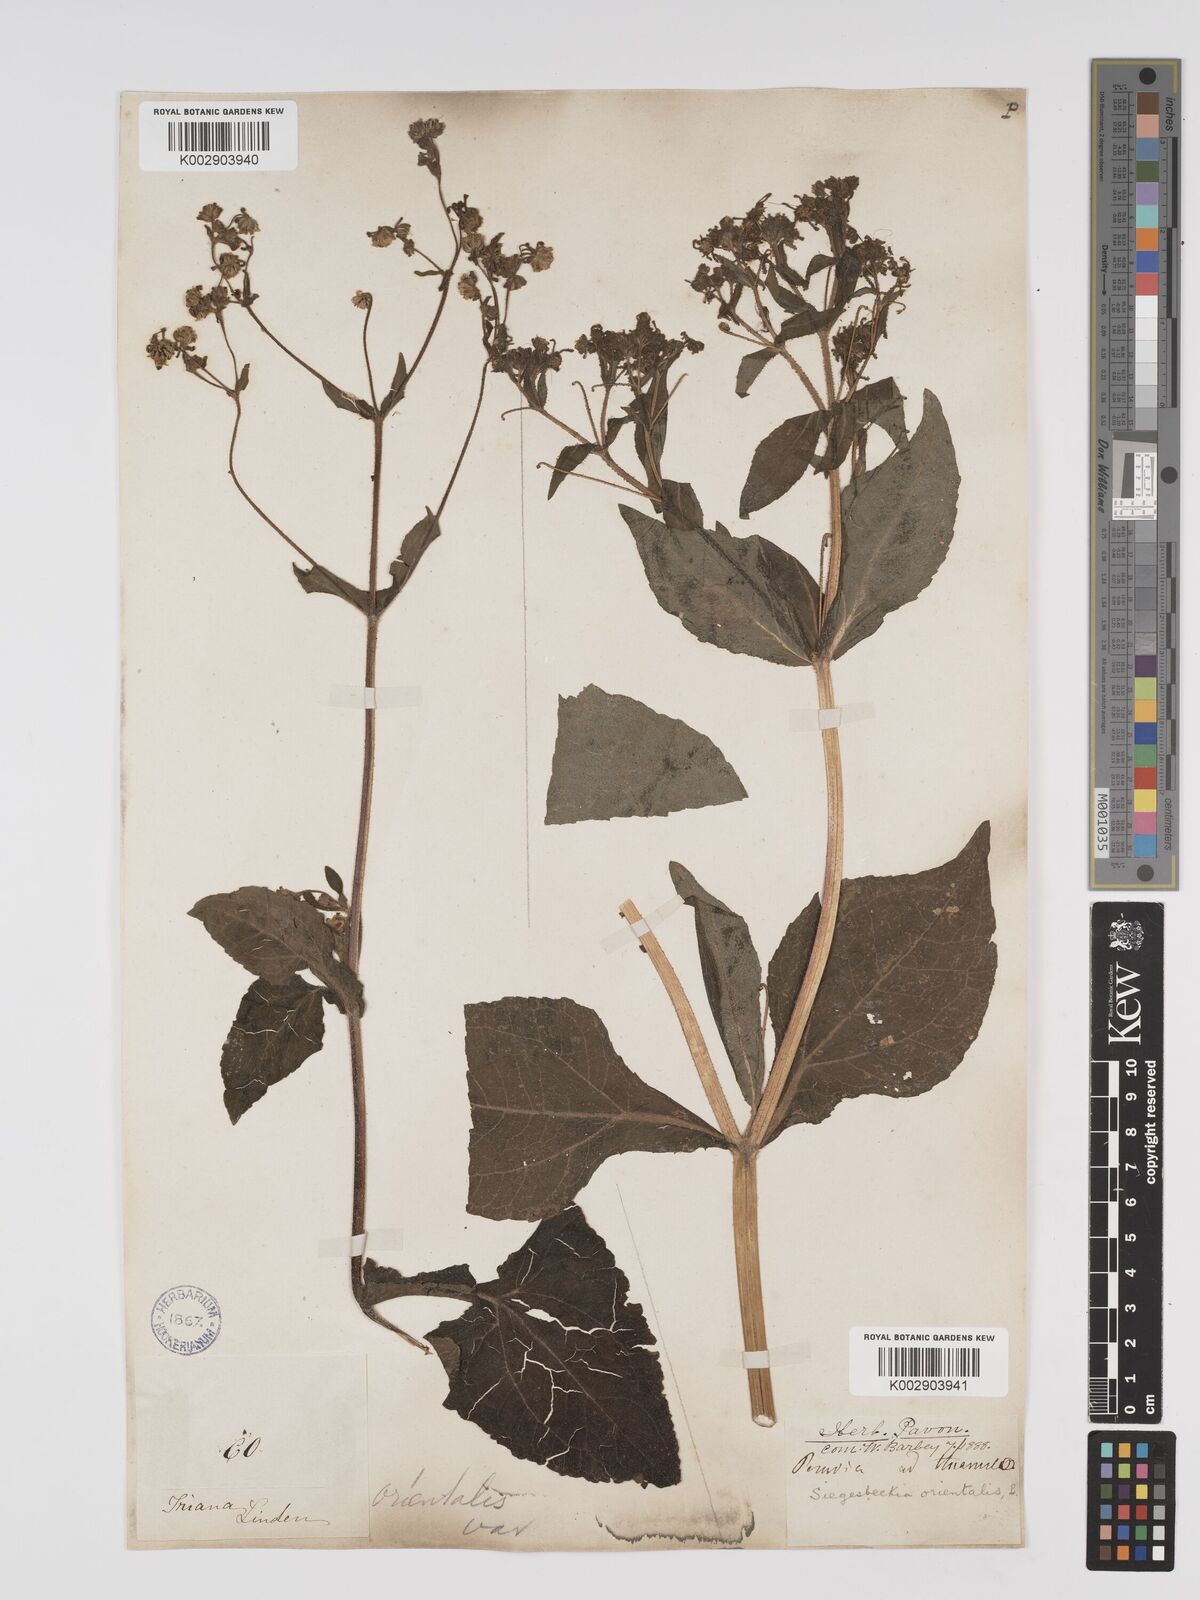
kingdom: Plantae
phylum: Tracheophyta
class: Magnoliopsida
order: Asterales
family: Asteraceae
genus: Sigesbeckia
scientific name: Sigesbeckia orientalis
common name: Eastern st paul's-wort
